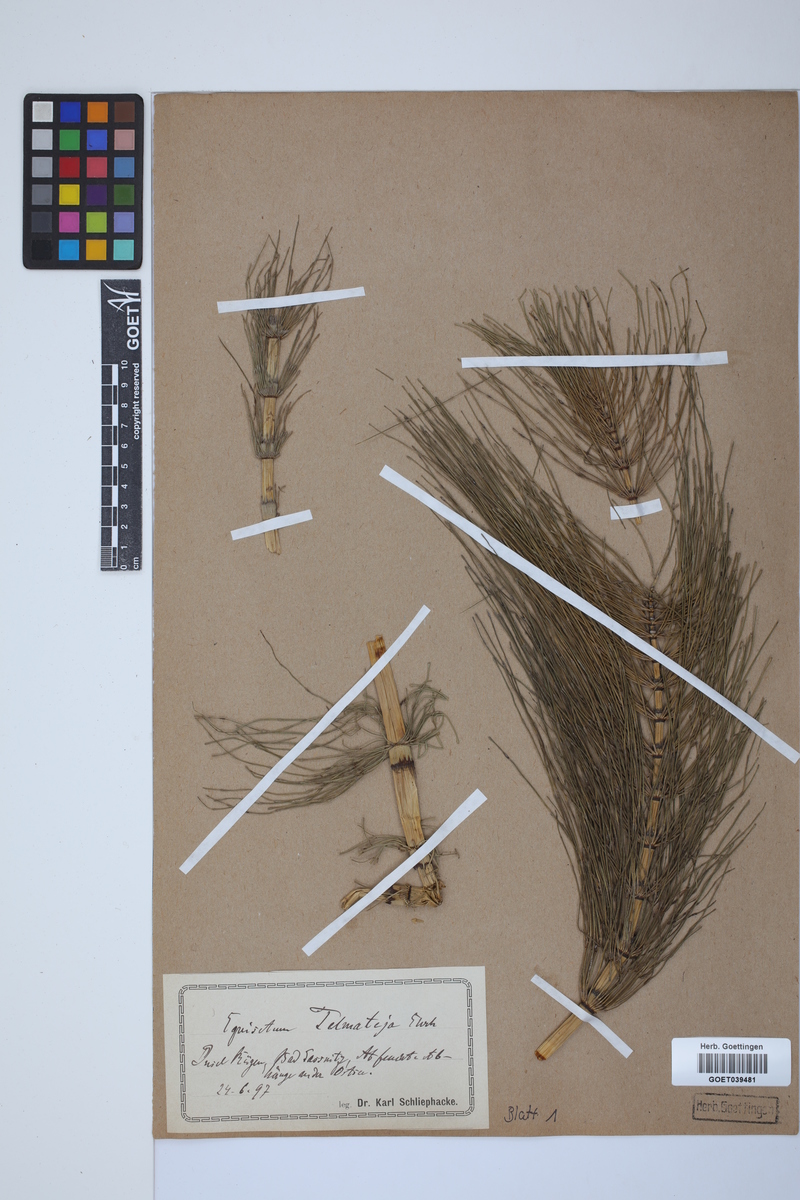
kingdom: Plantae
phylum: Tracheophyta
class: Polypodiopsida
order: Equisetales
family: Equisetaceae
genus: Equisetum
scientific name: Equisetum telmateia
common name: Great horsetail
